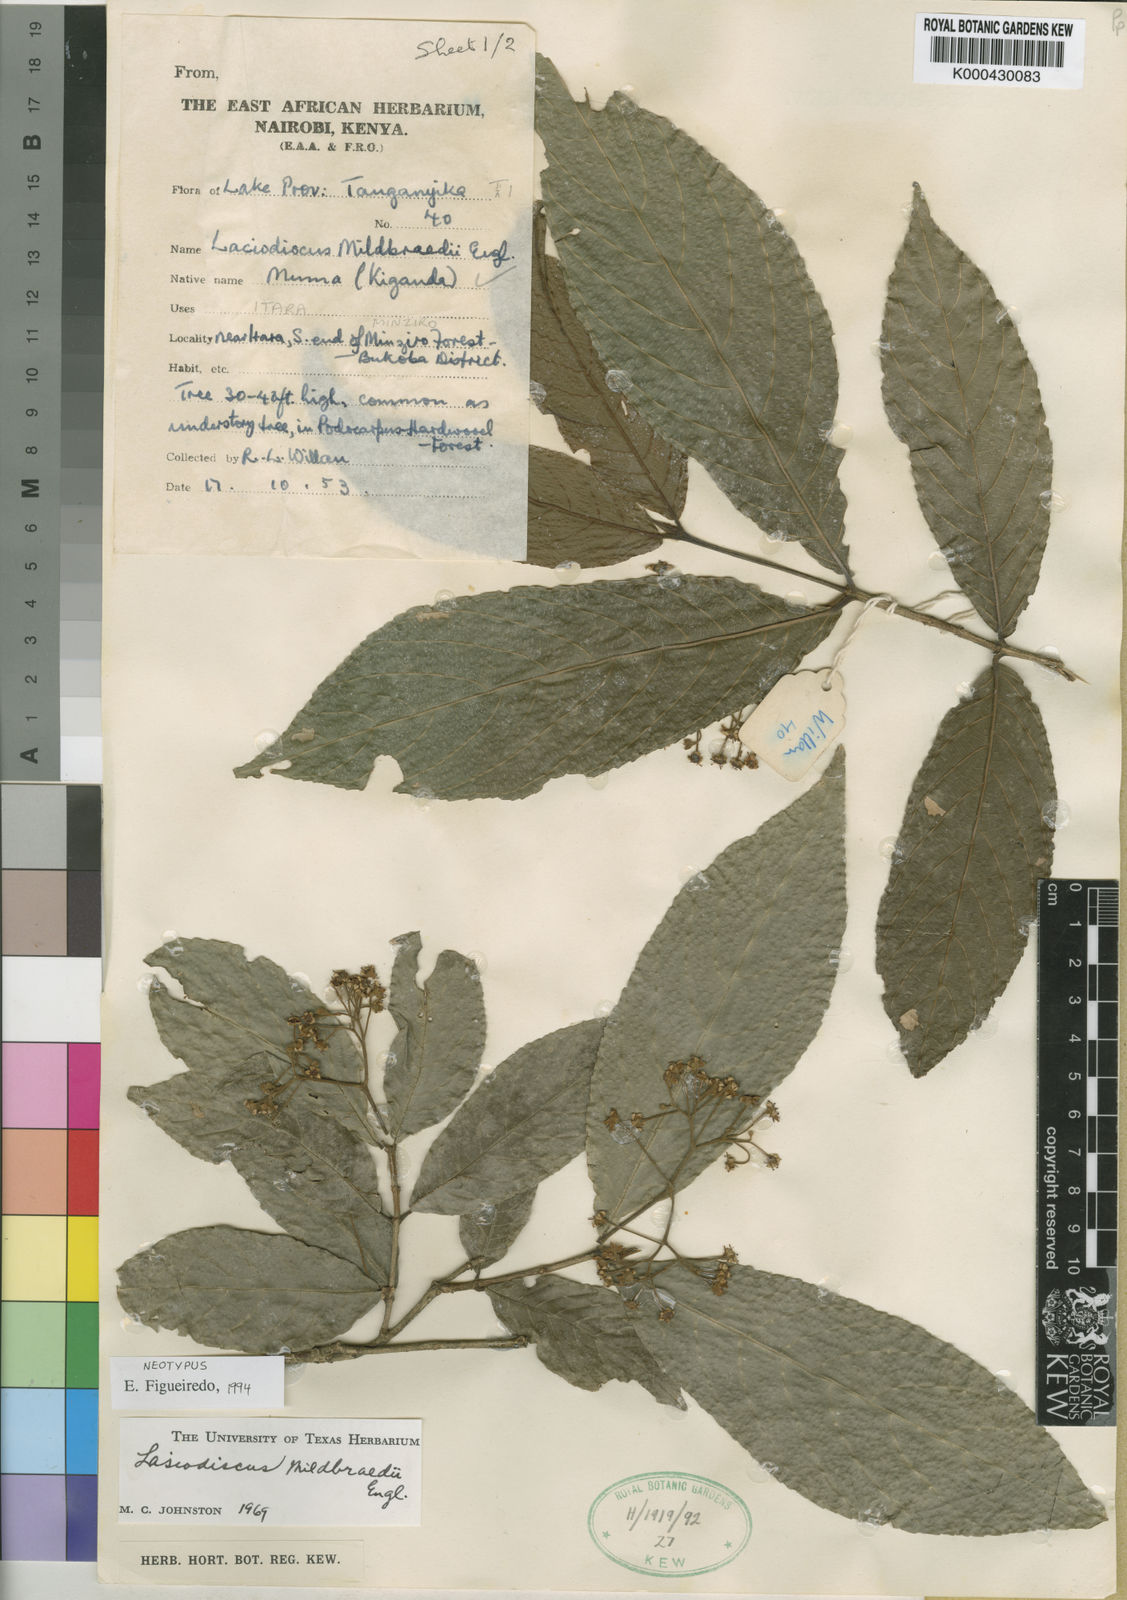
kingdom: Plantae
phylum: Tracheophyta
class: Magnoliopsida
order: Rosales
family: Rhamnaceae
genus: Lasiodiscus
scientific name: Lasiodiscus mildbraedii
